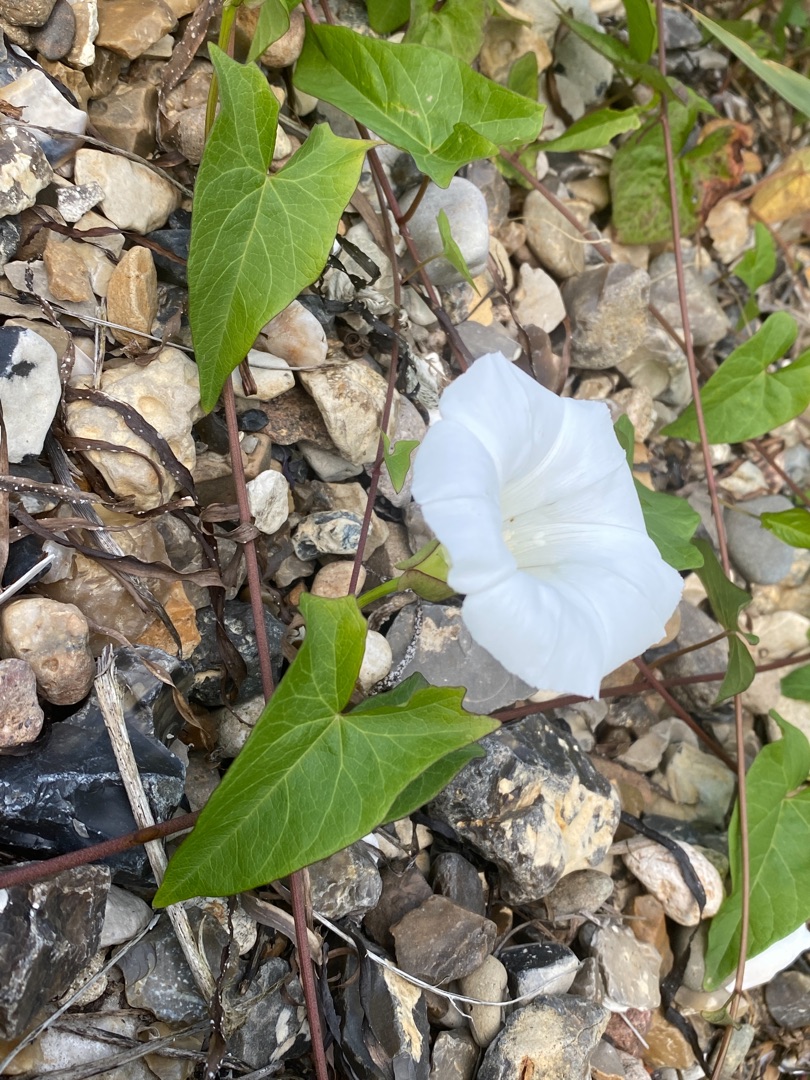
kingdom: Plantae
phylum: Tracheophyta
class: Magnoliopsida
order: Solanales
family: Convolvulaceae
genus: Calystegia
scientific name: Calystegia sepium
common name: Gærde-snerle
